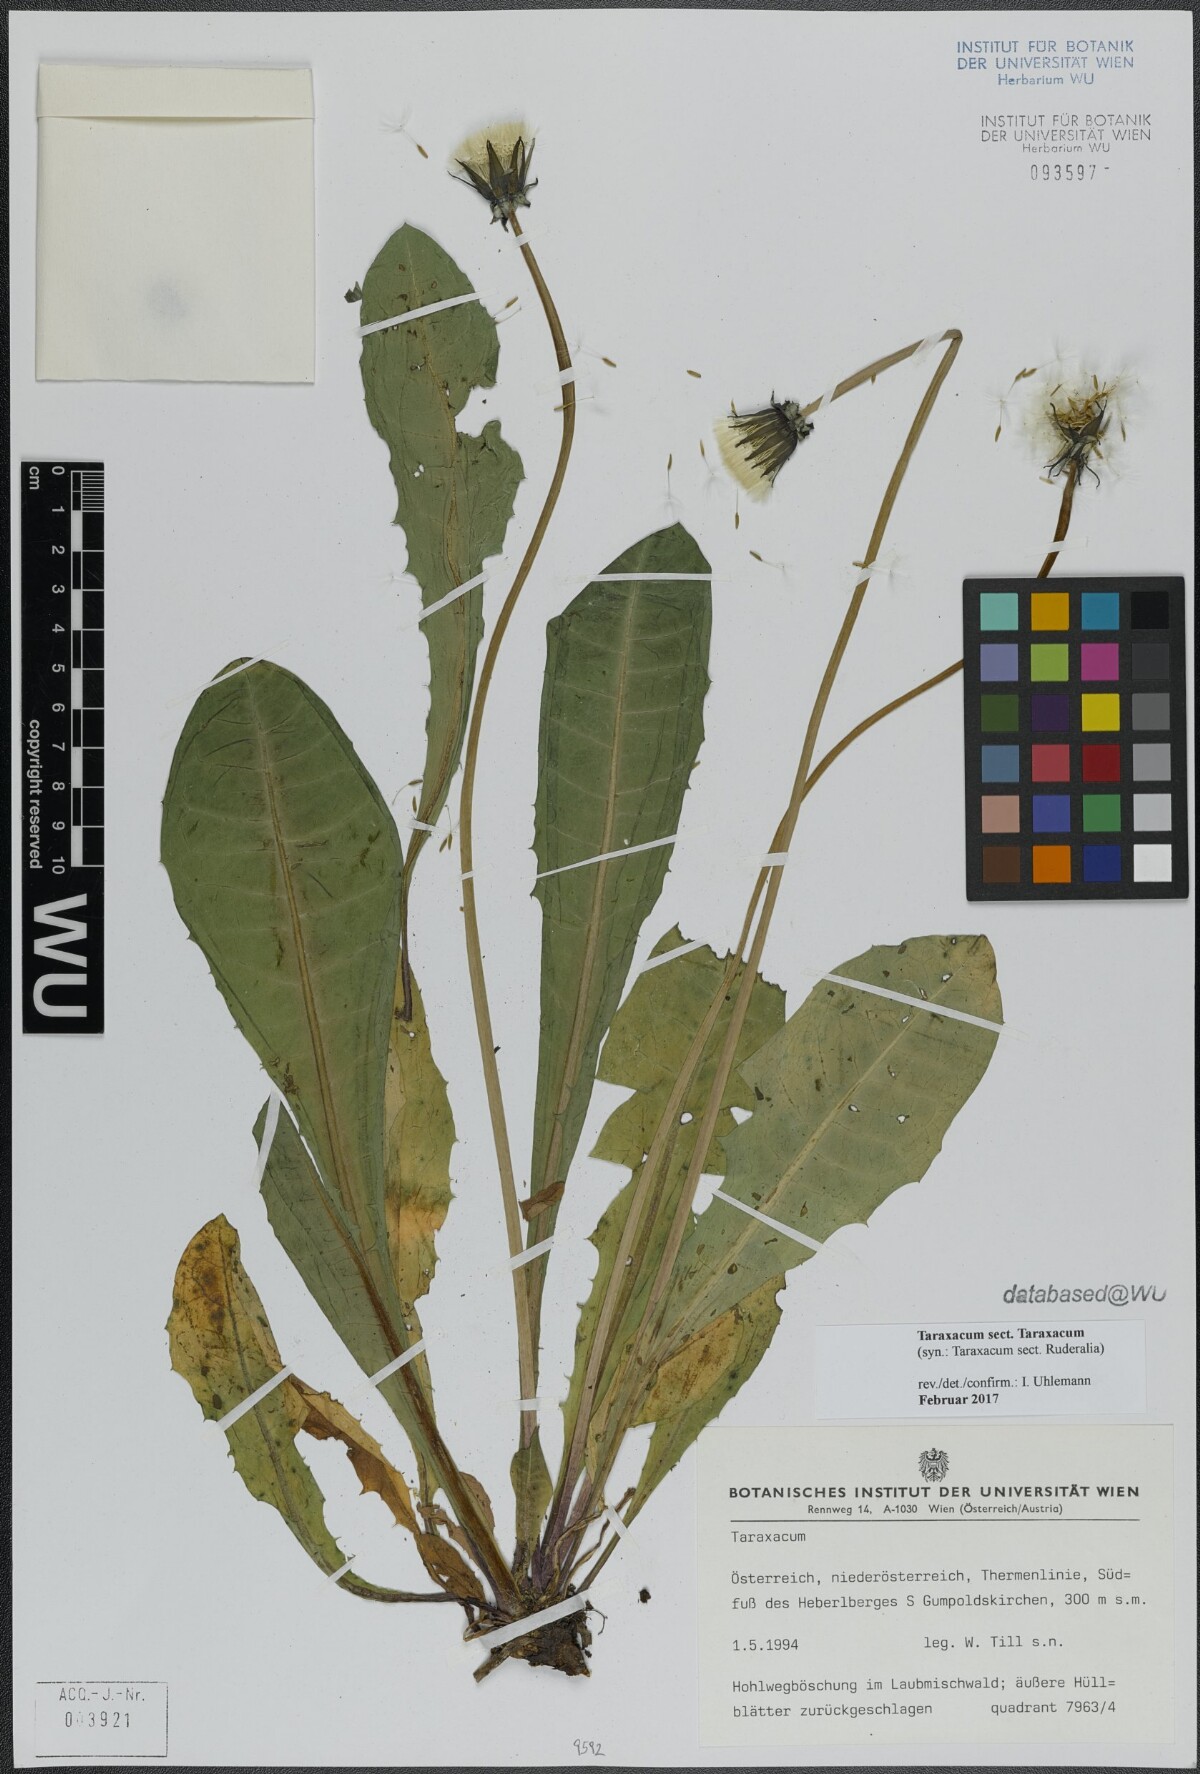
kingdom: Plantae
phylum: Tracheophyta
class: Magnoliopsida
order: Asterales
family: Asteraceae
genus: Taraxacum
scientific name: Taraxacum
